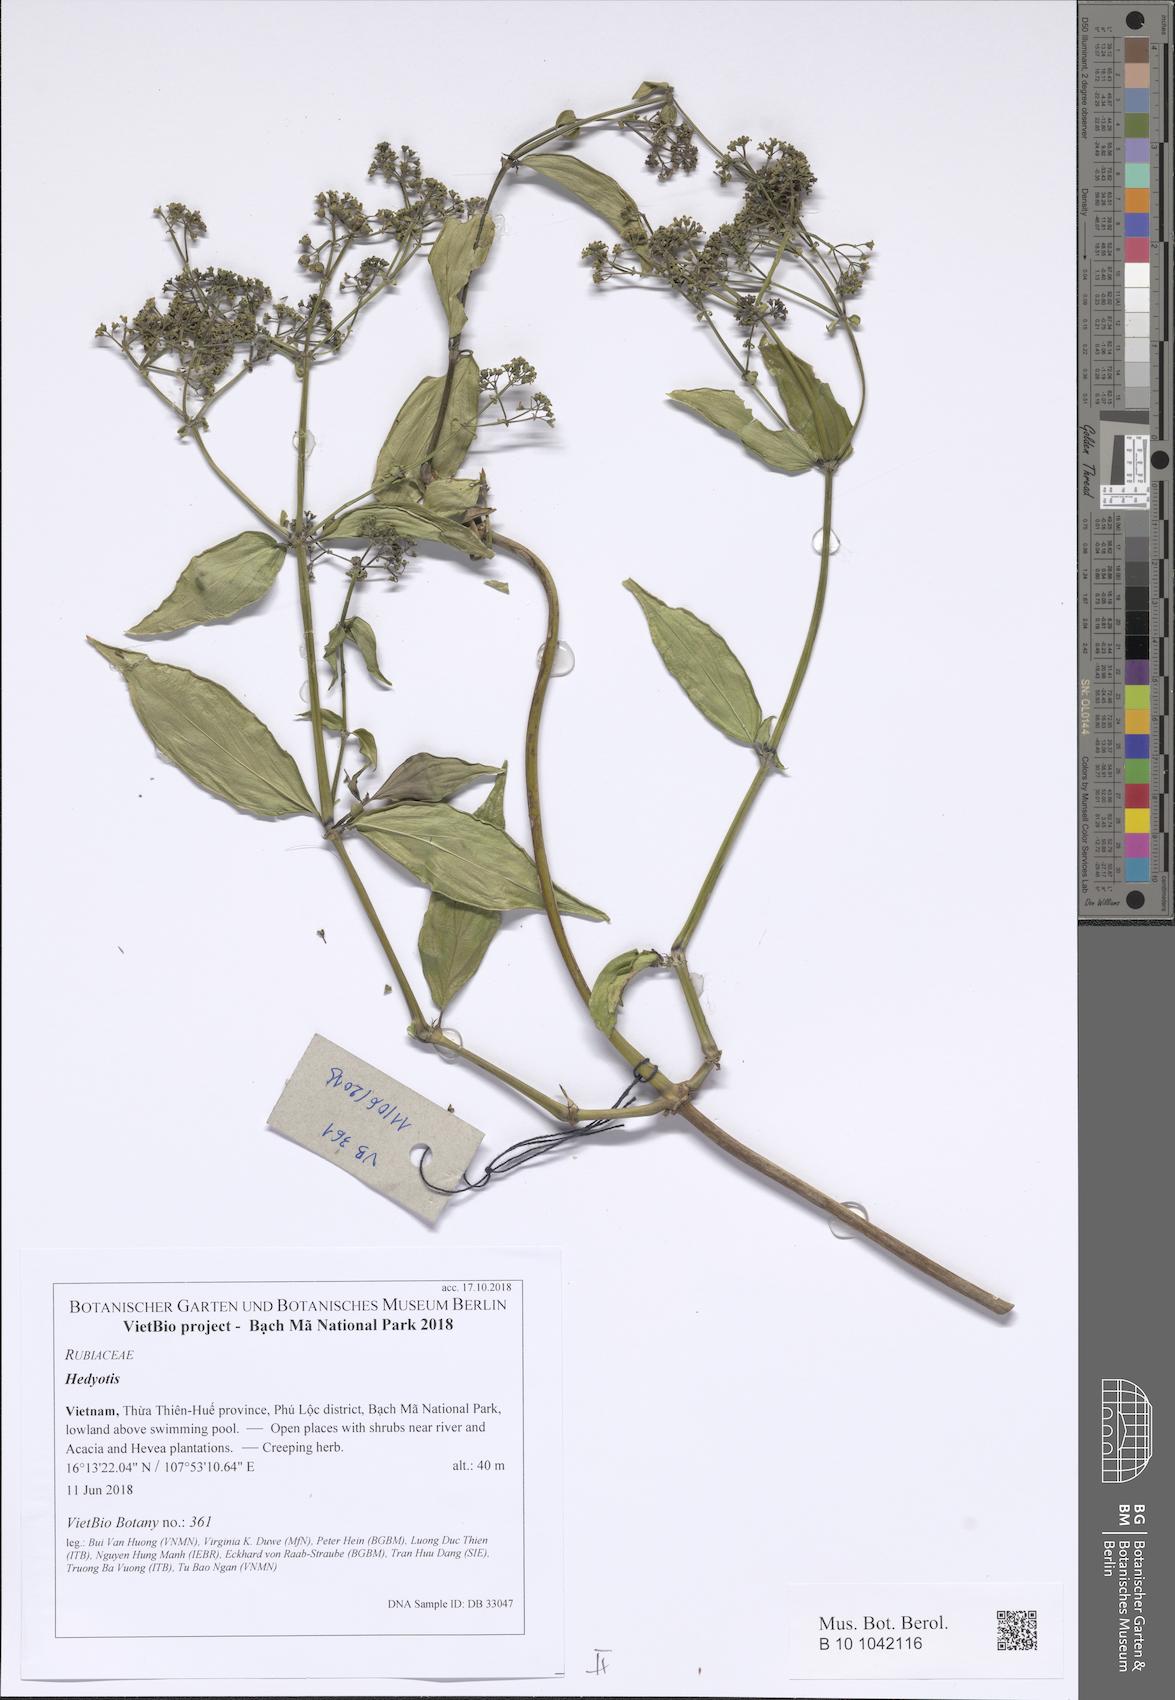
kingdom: Plantae
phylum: Tracheophyta
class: Magnoliopsida
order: Gentianales
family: Rubiaceae
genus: Hedyotis
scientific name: Hedyotis
